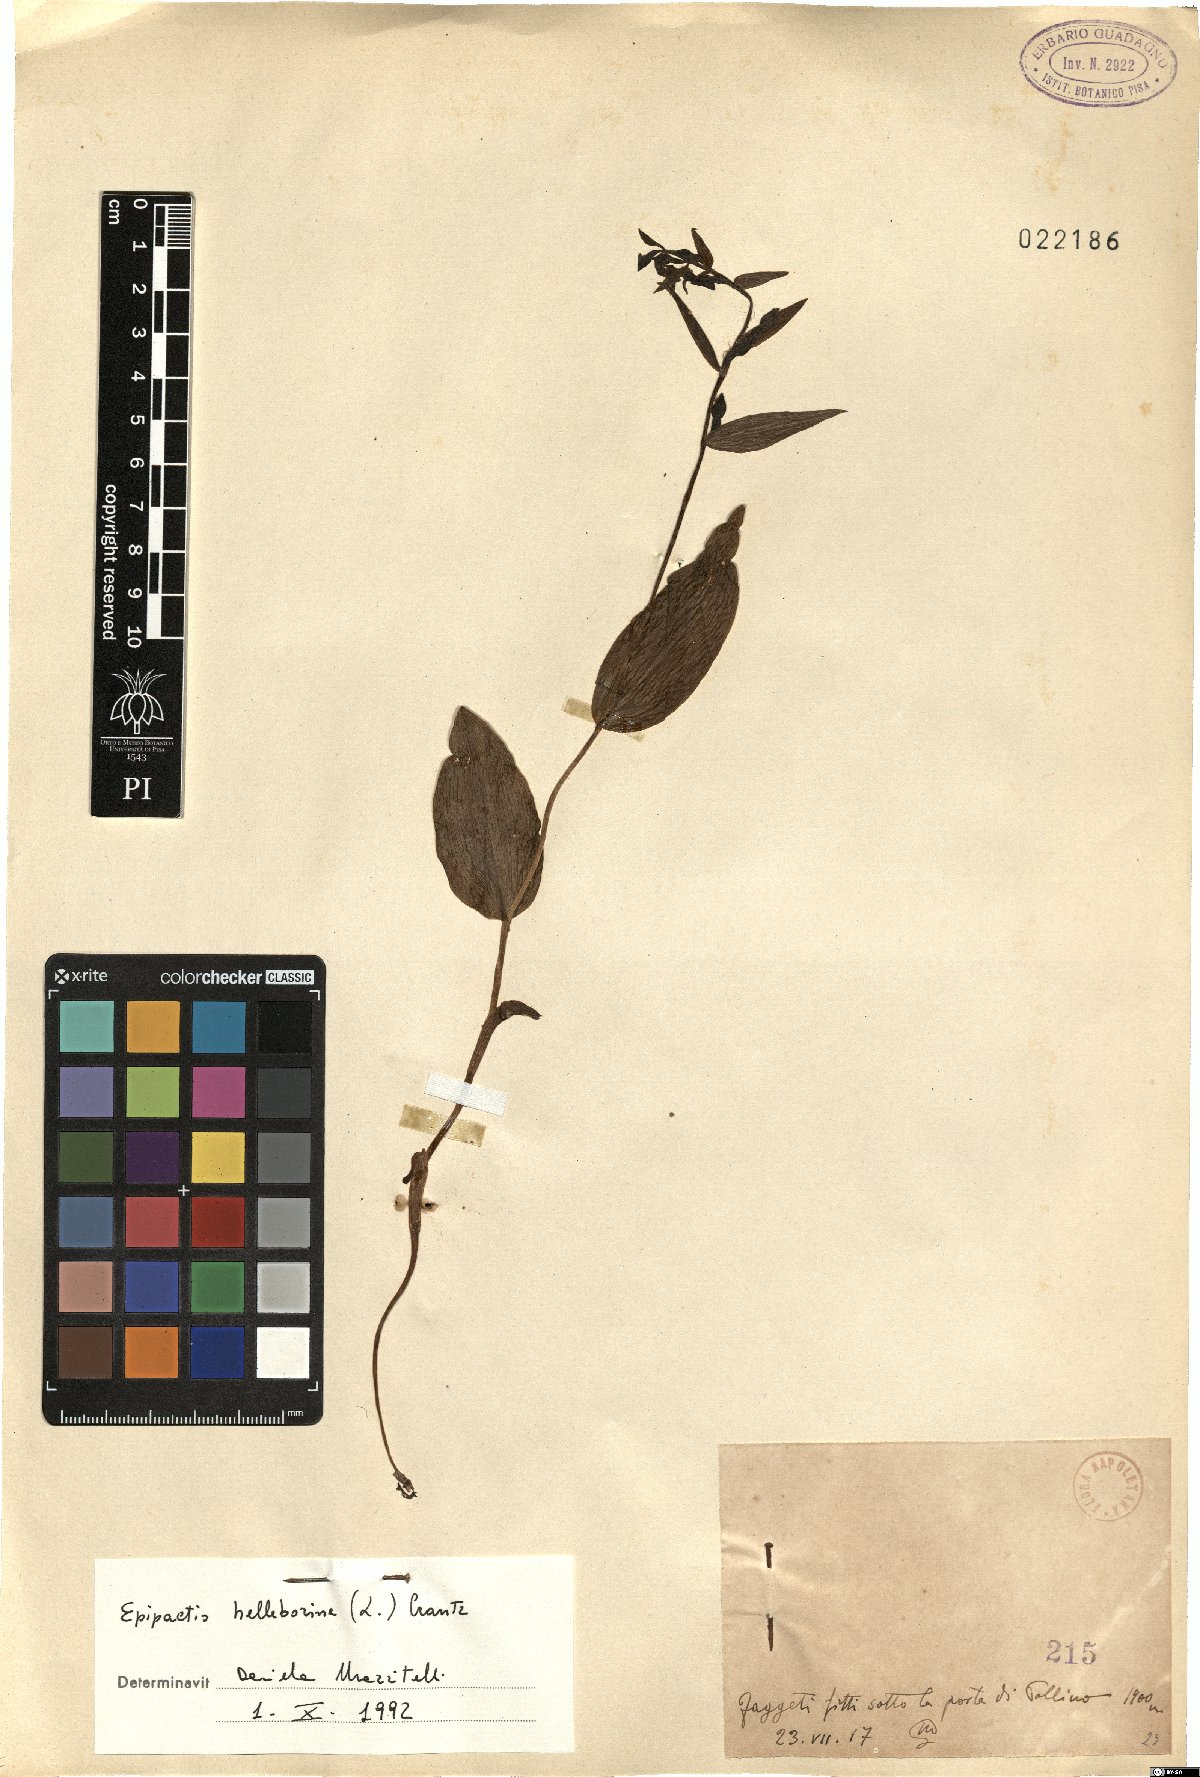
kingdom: Plantae
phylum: Tracheophyta
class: Liliopsida
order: Asparagales
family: Orchidaceae
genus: Epipactis
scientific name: Epipactis helleborine
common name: Broad-leaved helleborine
